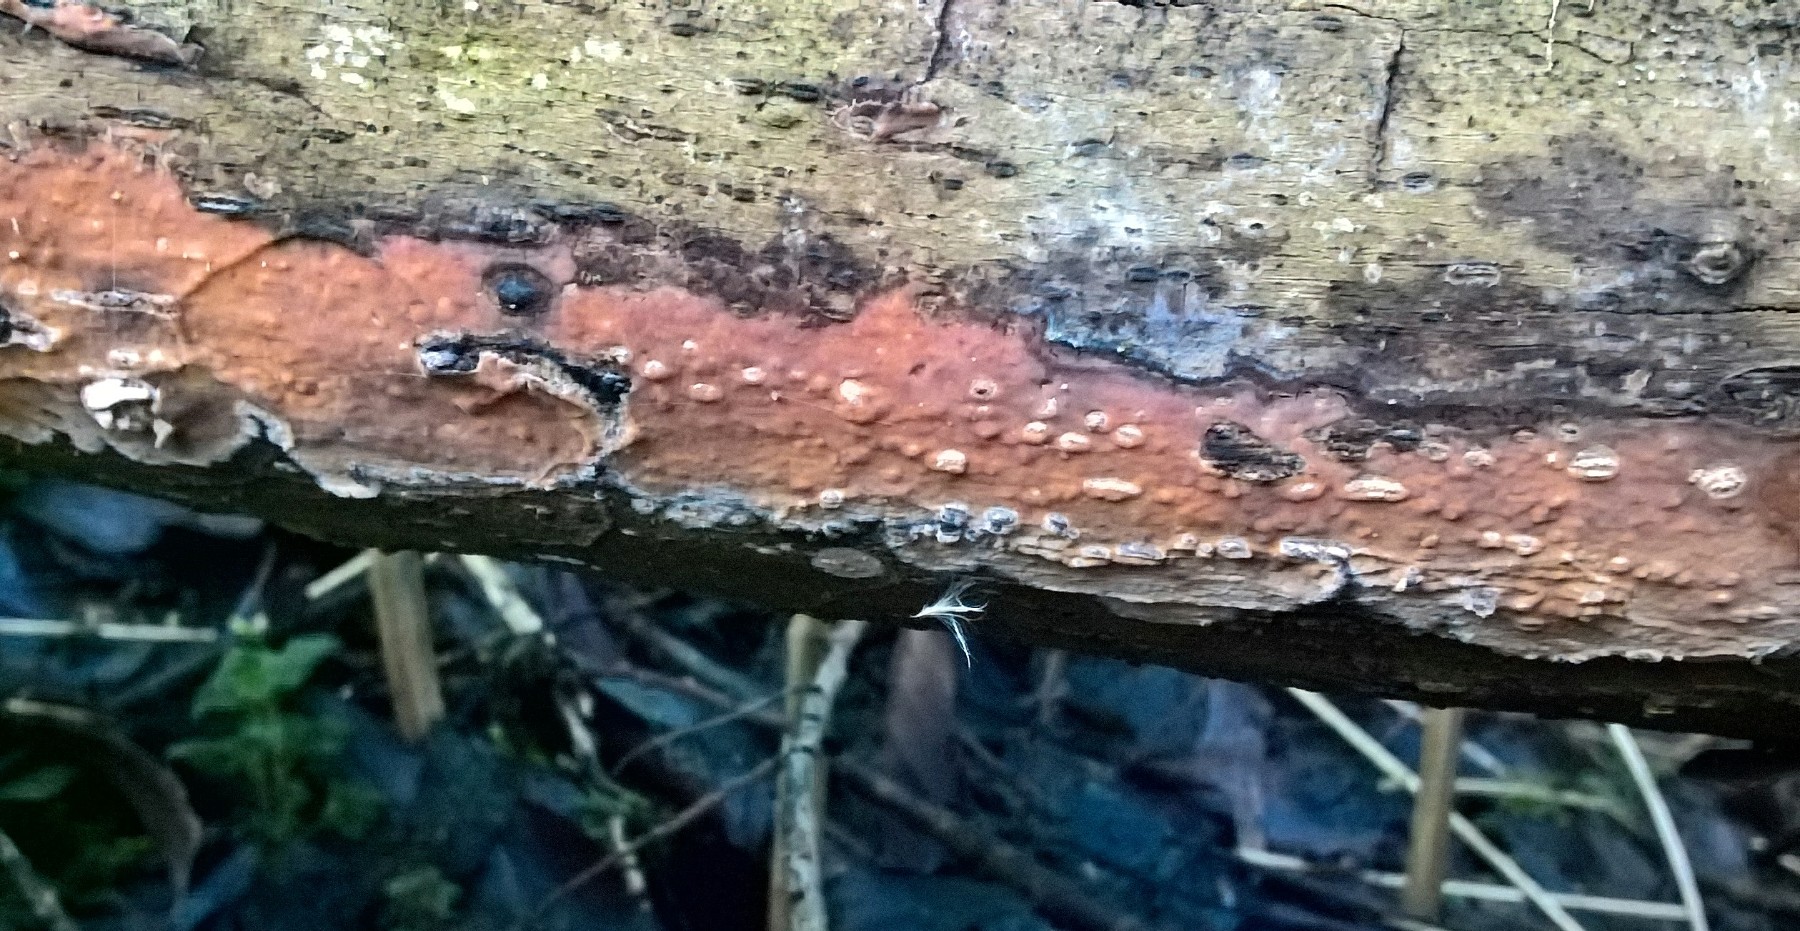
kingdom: Fungi
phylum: Basidiomycota
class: Agaricomycetes
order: Russulales
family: Peniophoraceae
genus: Peniophora
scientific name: Peniophora incarnata
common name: laksefarvet voksskind
